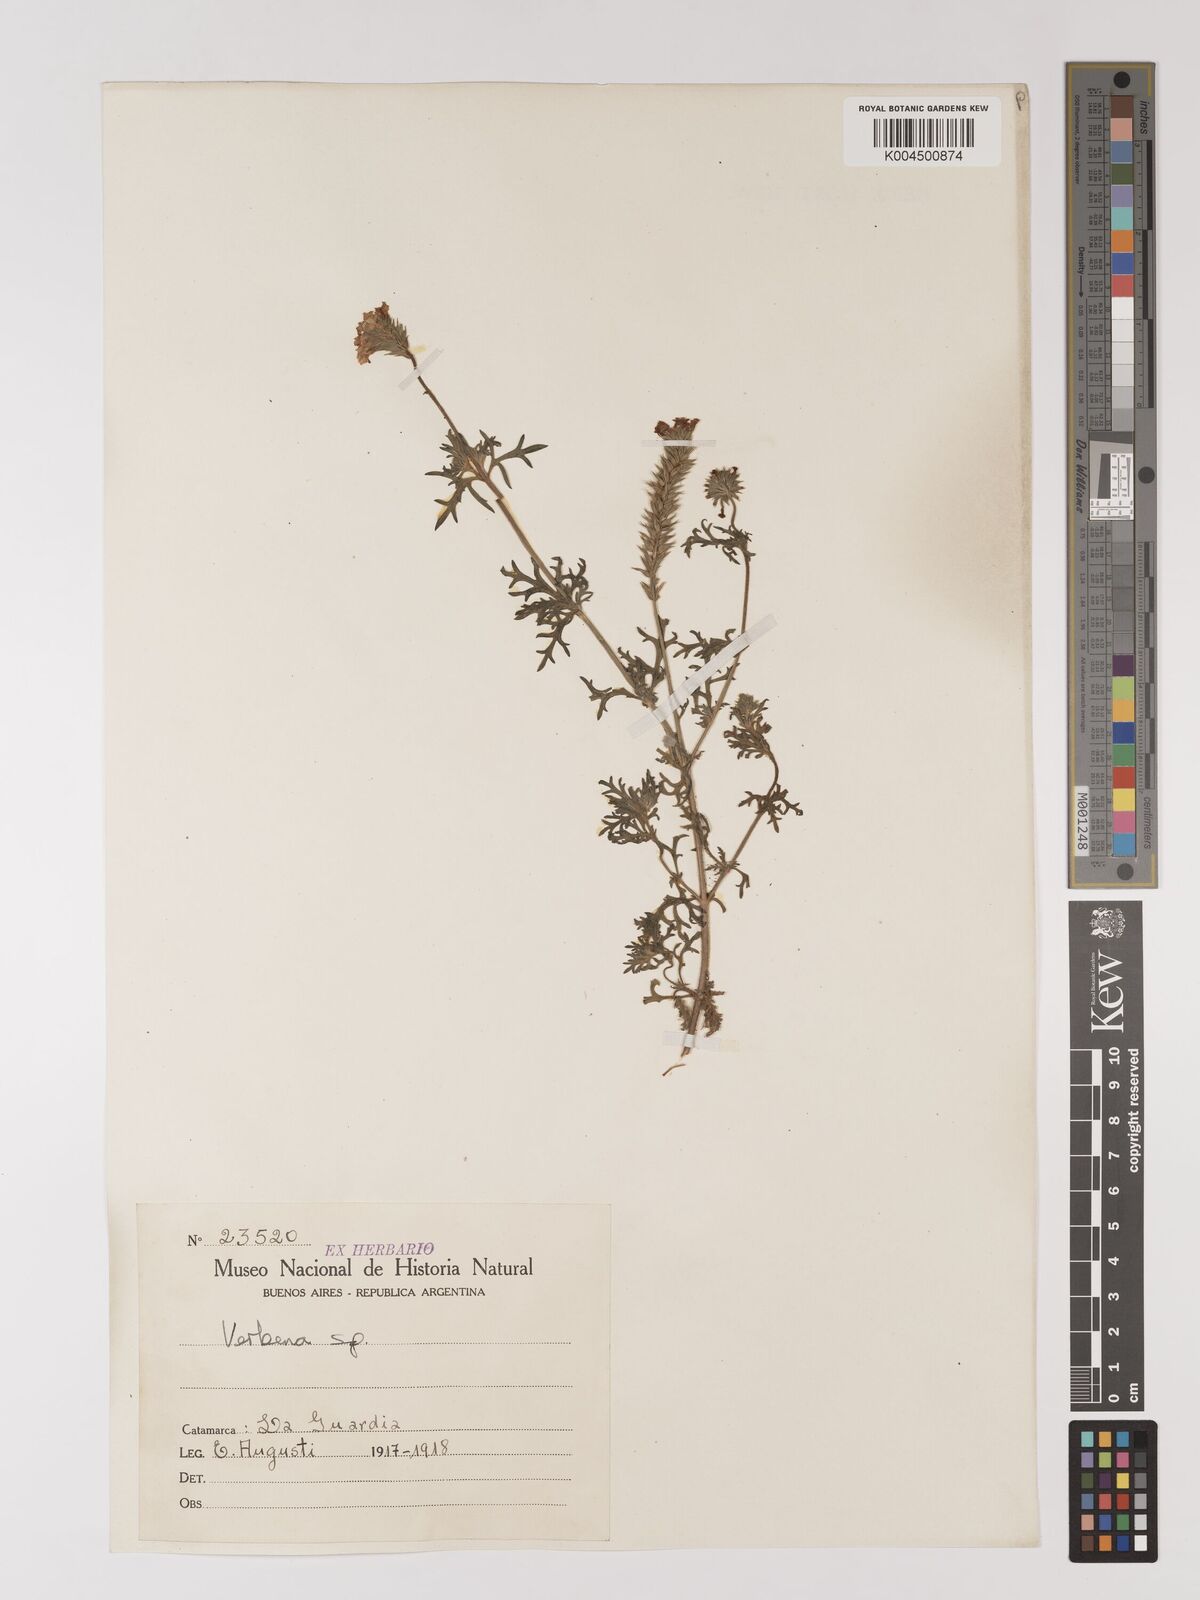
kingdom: Plantae
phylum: Tracheophyta
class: Magnoliopsida
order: Lamiales
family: Verbenaceae
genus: Verbena
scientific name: Verbena
